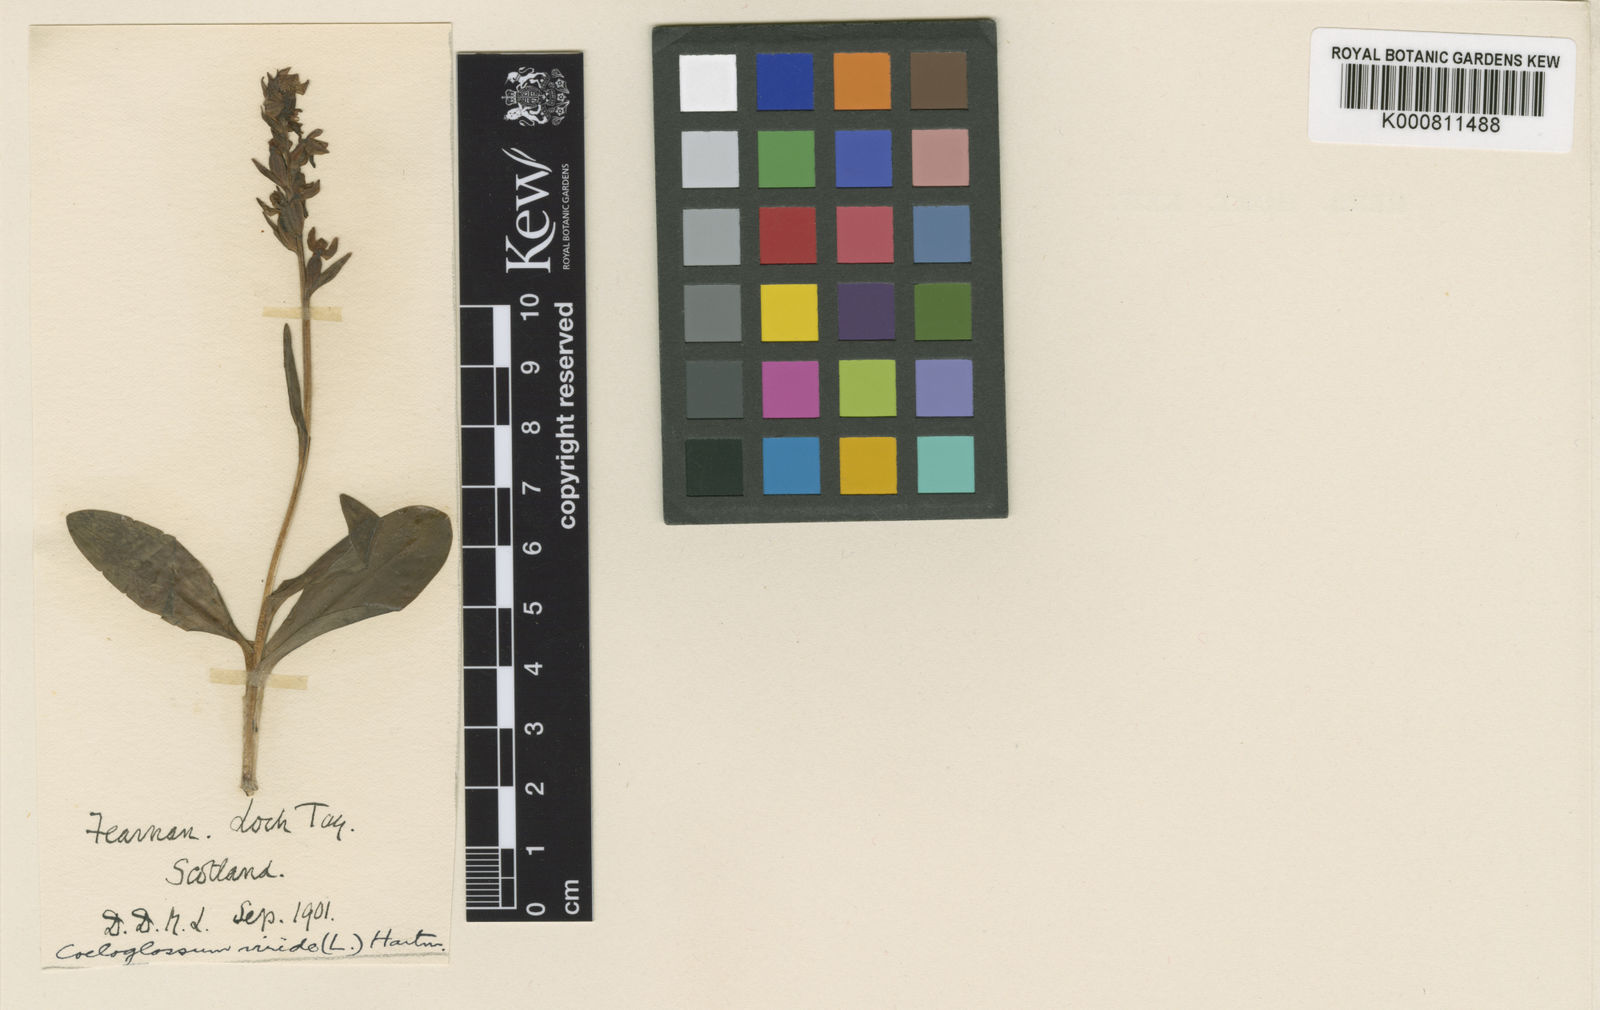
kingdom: Plantae
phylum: Tracheophyta
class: Liliopsida
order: Asparagales
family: Orchidaceae
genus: Dactylorhiza
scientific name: Dactylorhiza viridis
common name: Longbract frog orchid
